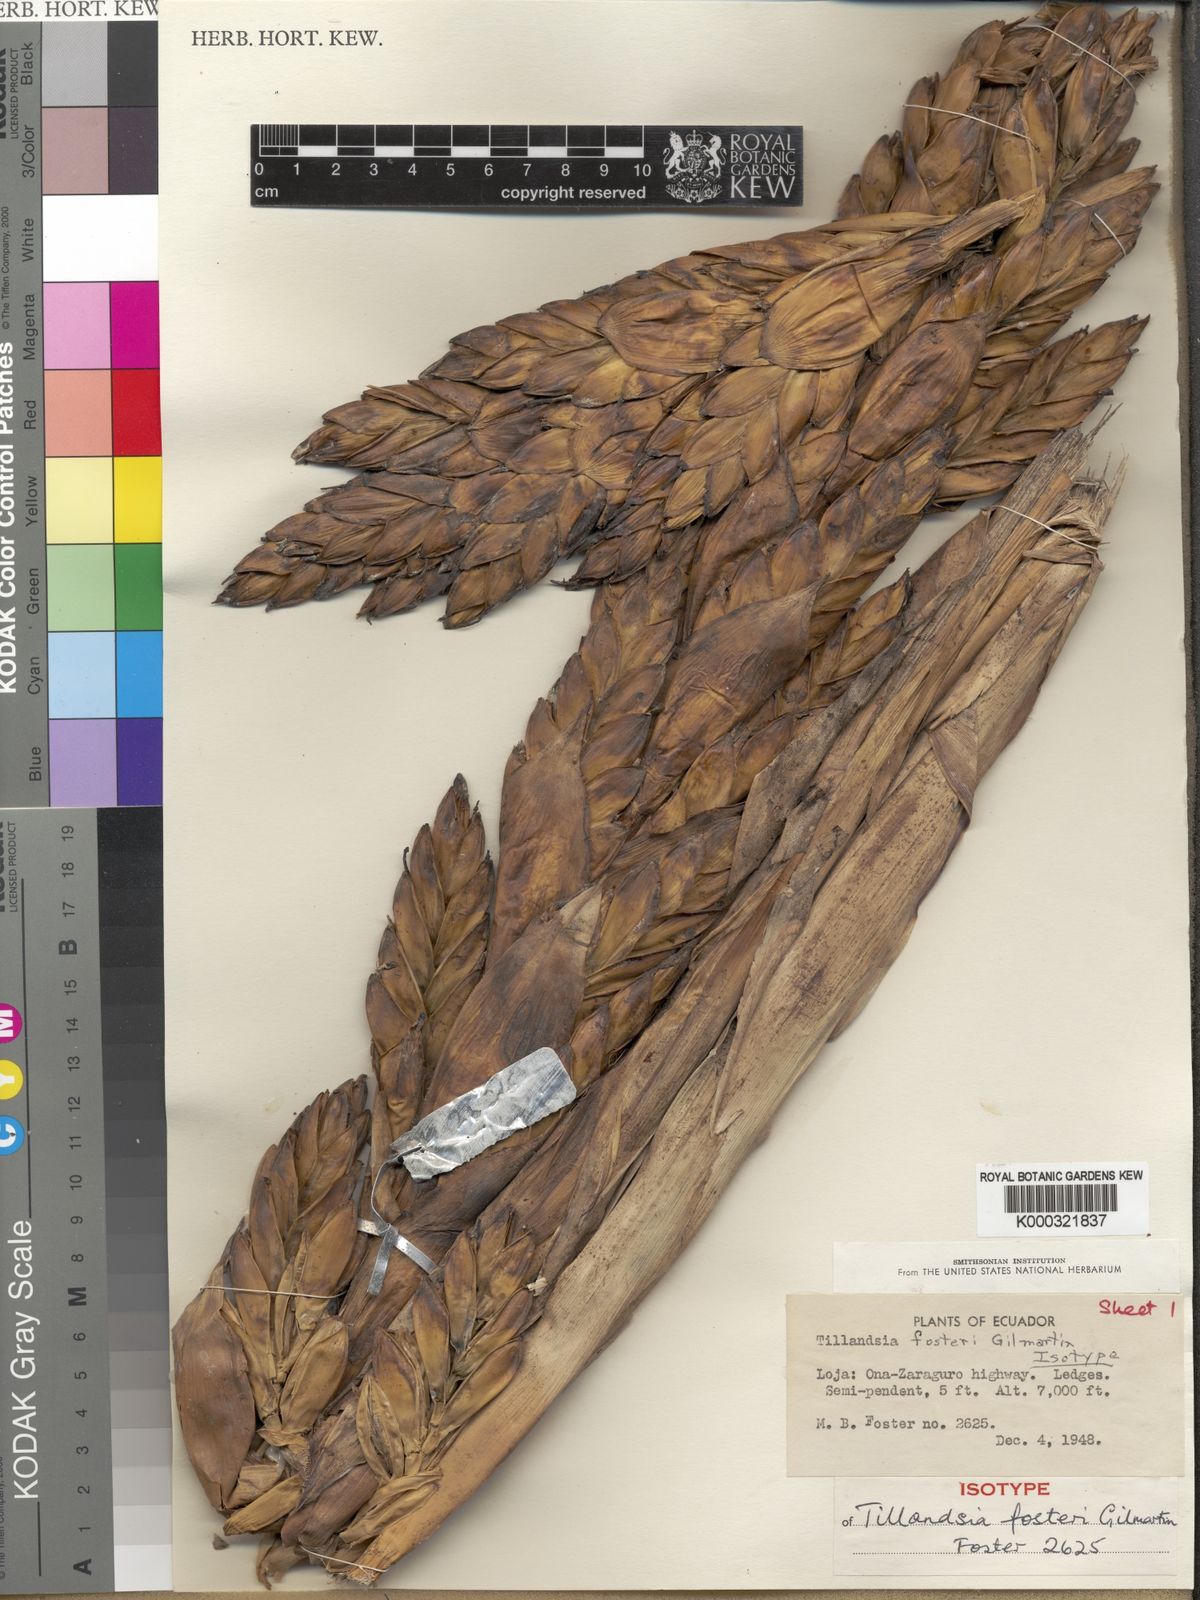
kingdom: Plantae
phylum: Tracheophyta
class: Liliopsida
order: Poales
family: Bromeliaceae
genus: Tillandsia
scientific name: Tillandsia demissa
